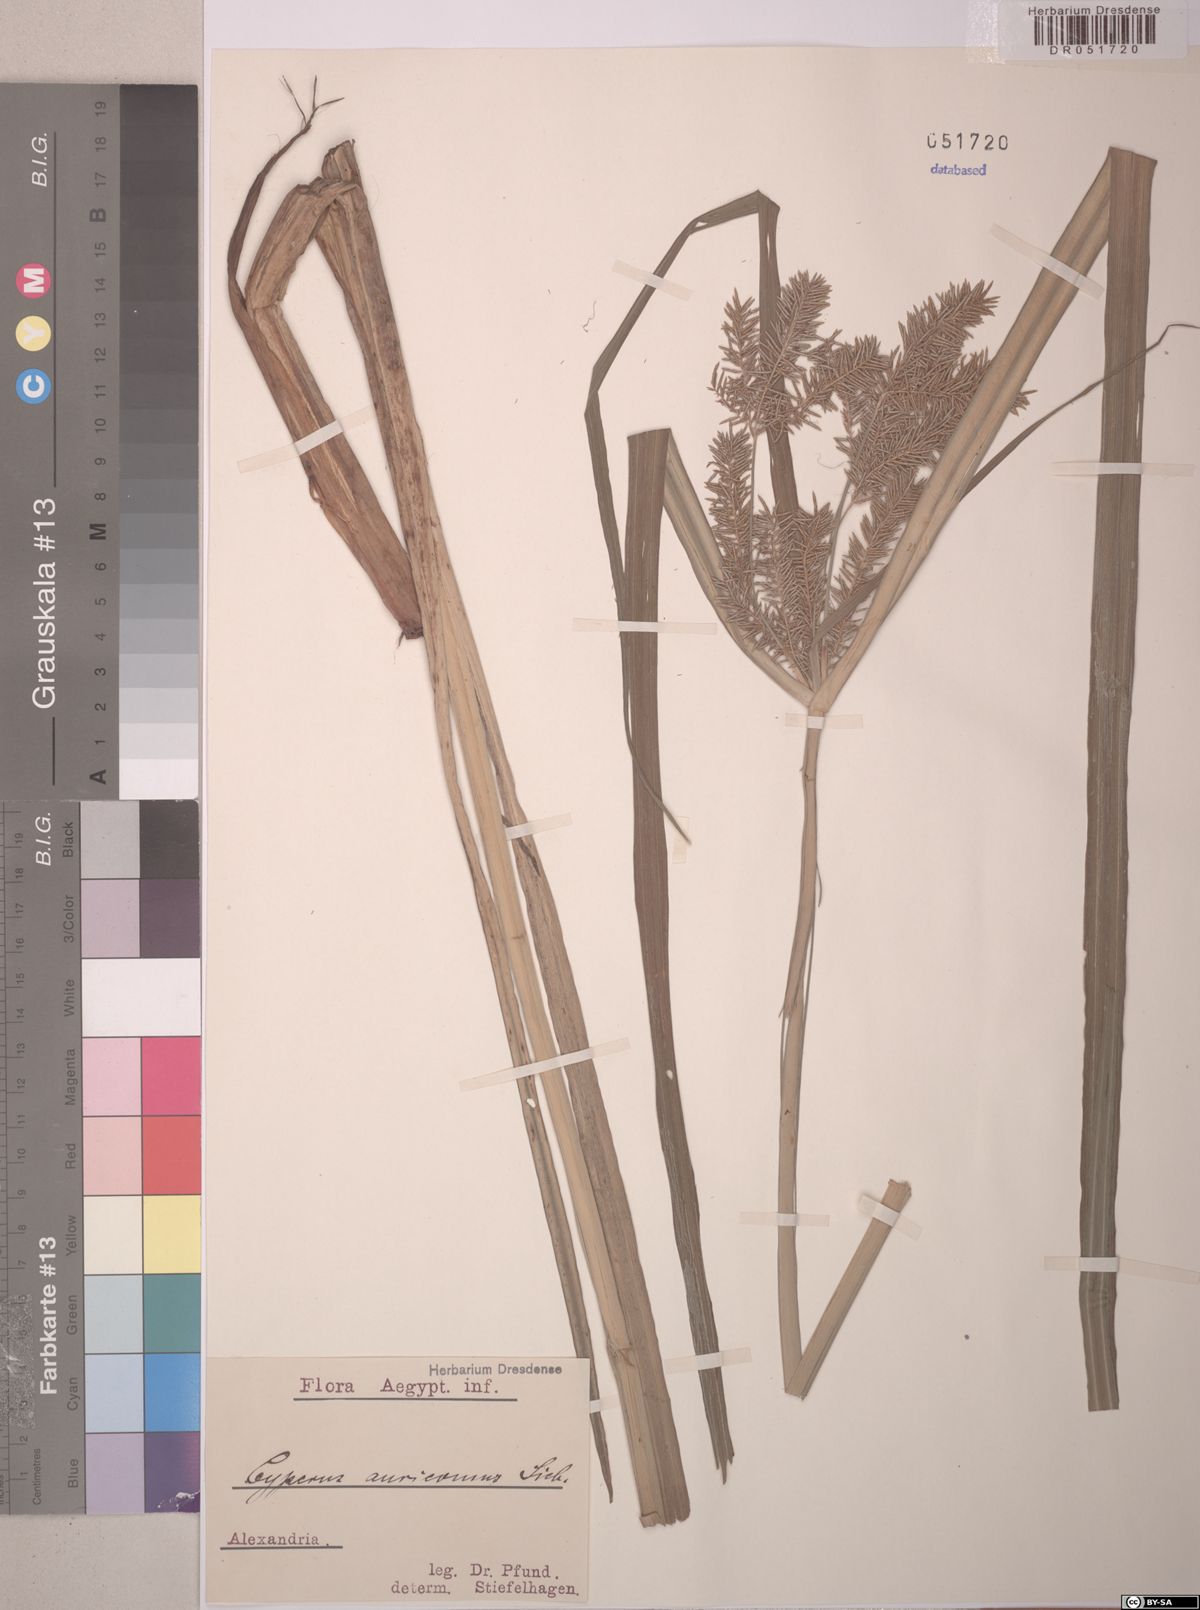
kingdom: Plantae
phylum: Tracheophyta
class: Liliopsida
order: Poales
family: Cyperaceae
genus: Cyperus
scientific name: Cyperus digitatus
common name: Finger flatsedge
